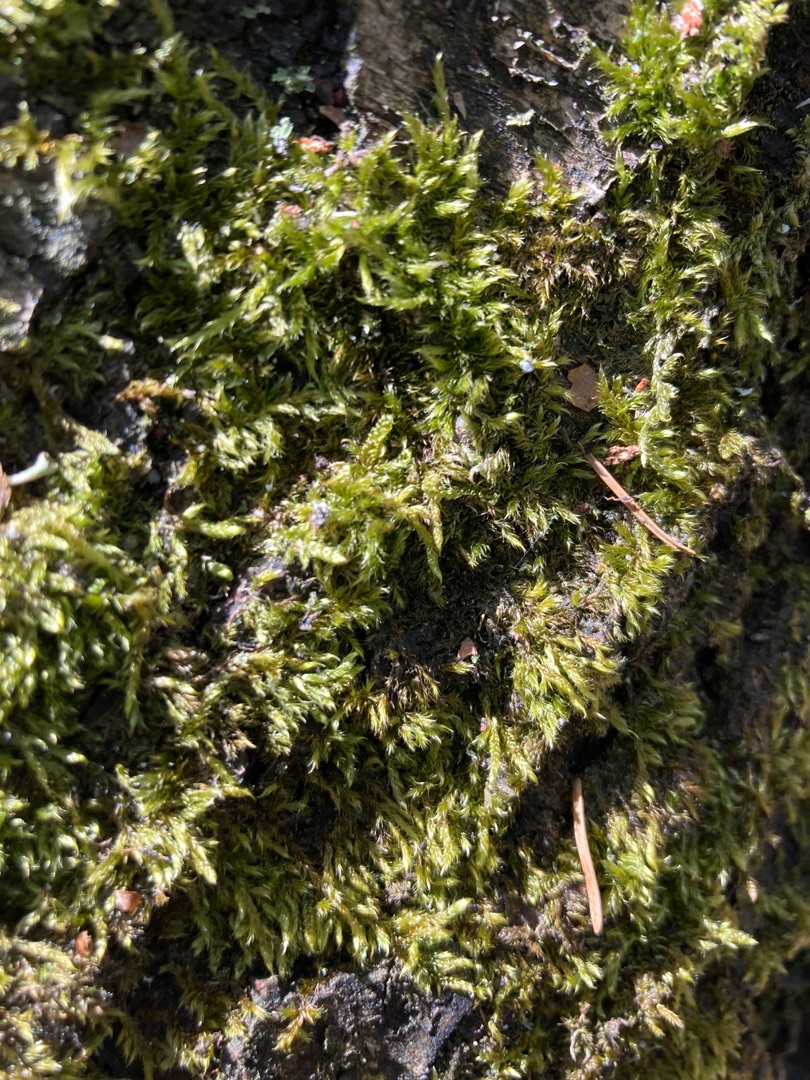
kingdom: Plantae
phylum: Bryophyta
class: Bryopsida
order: Hypnales
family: Hypnaceae
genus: Hypnum
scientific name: Hypnum
